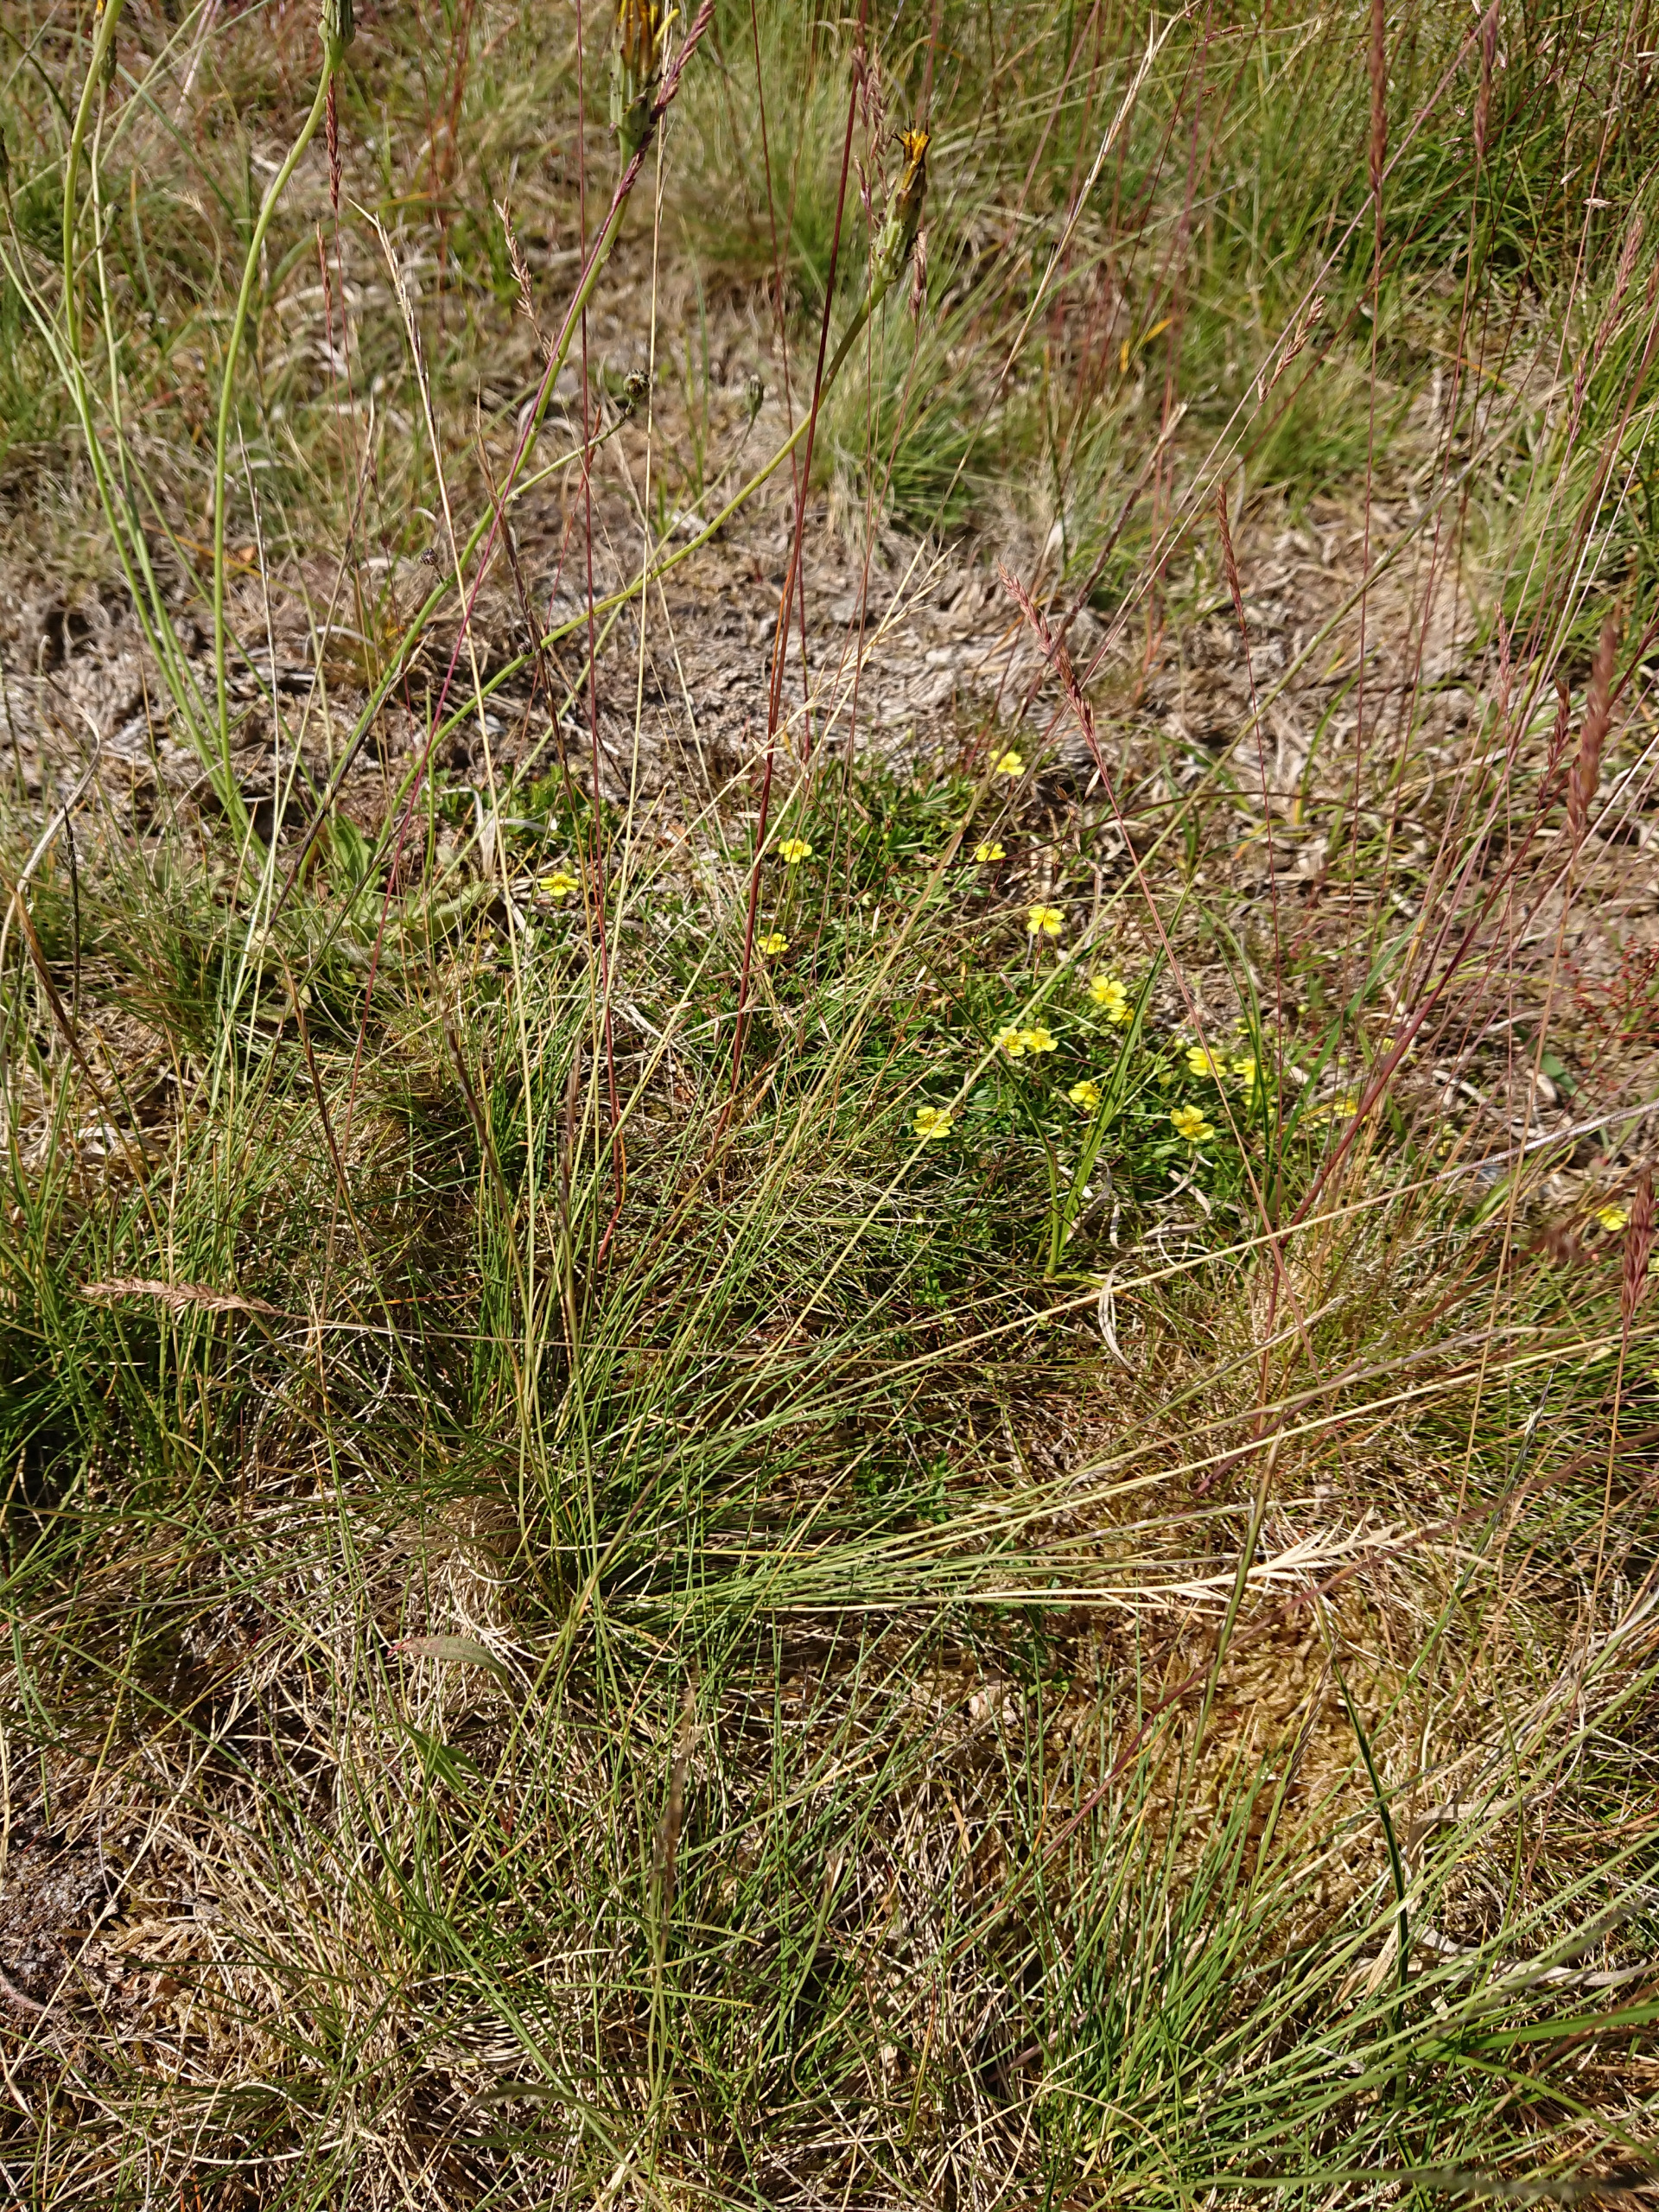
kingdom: Plantae
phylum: Tracheophyta
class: Liliopsida
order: Poales
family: Poaceae
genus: Nardus
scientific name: Nardus stricta
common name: Katteskæg
